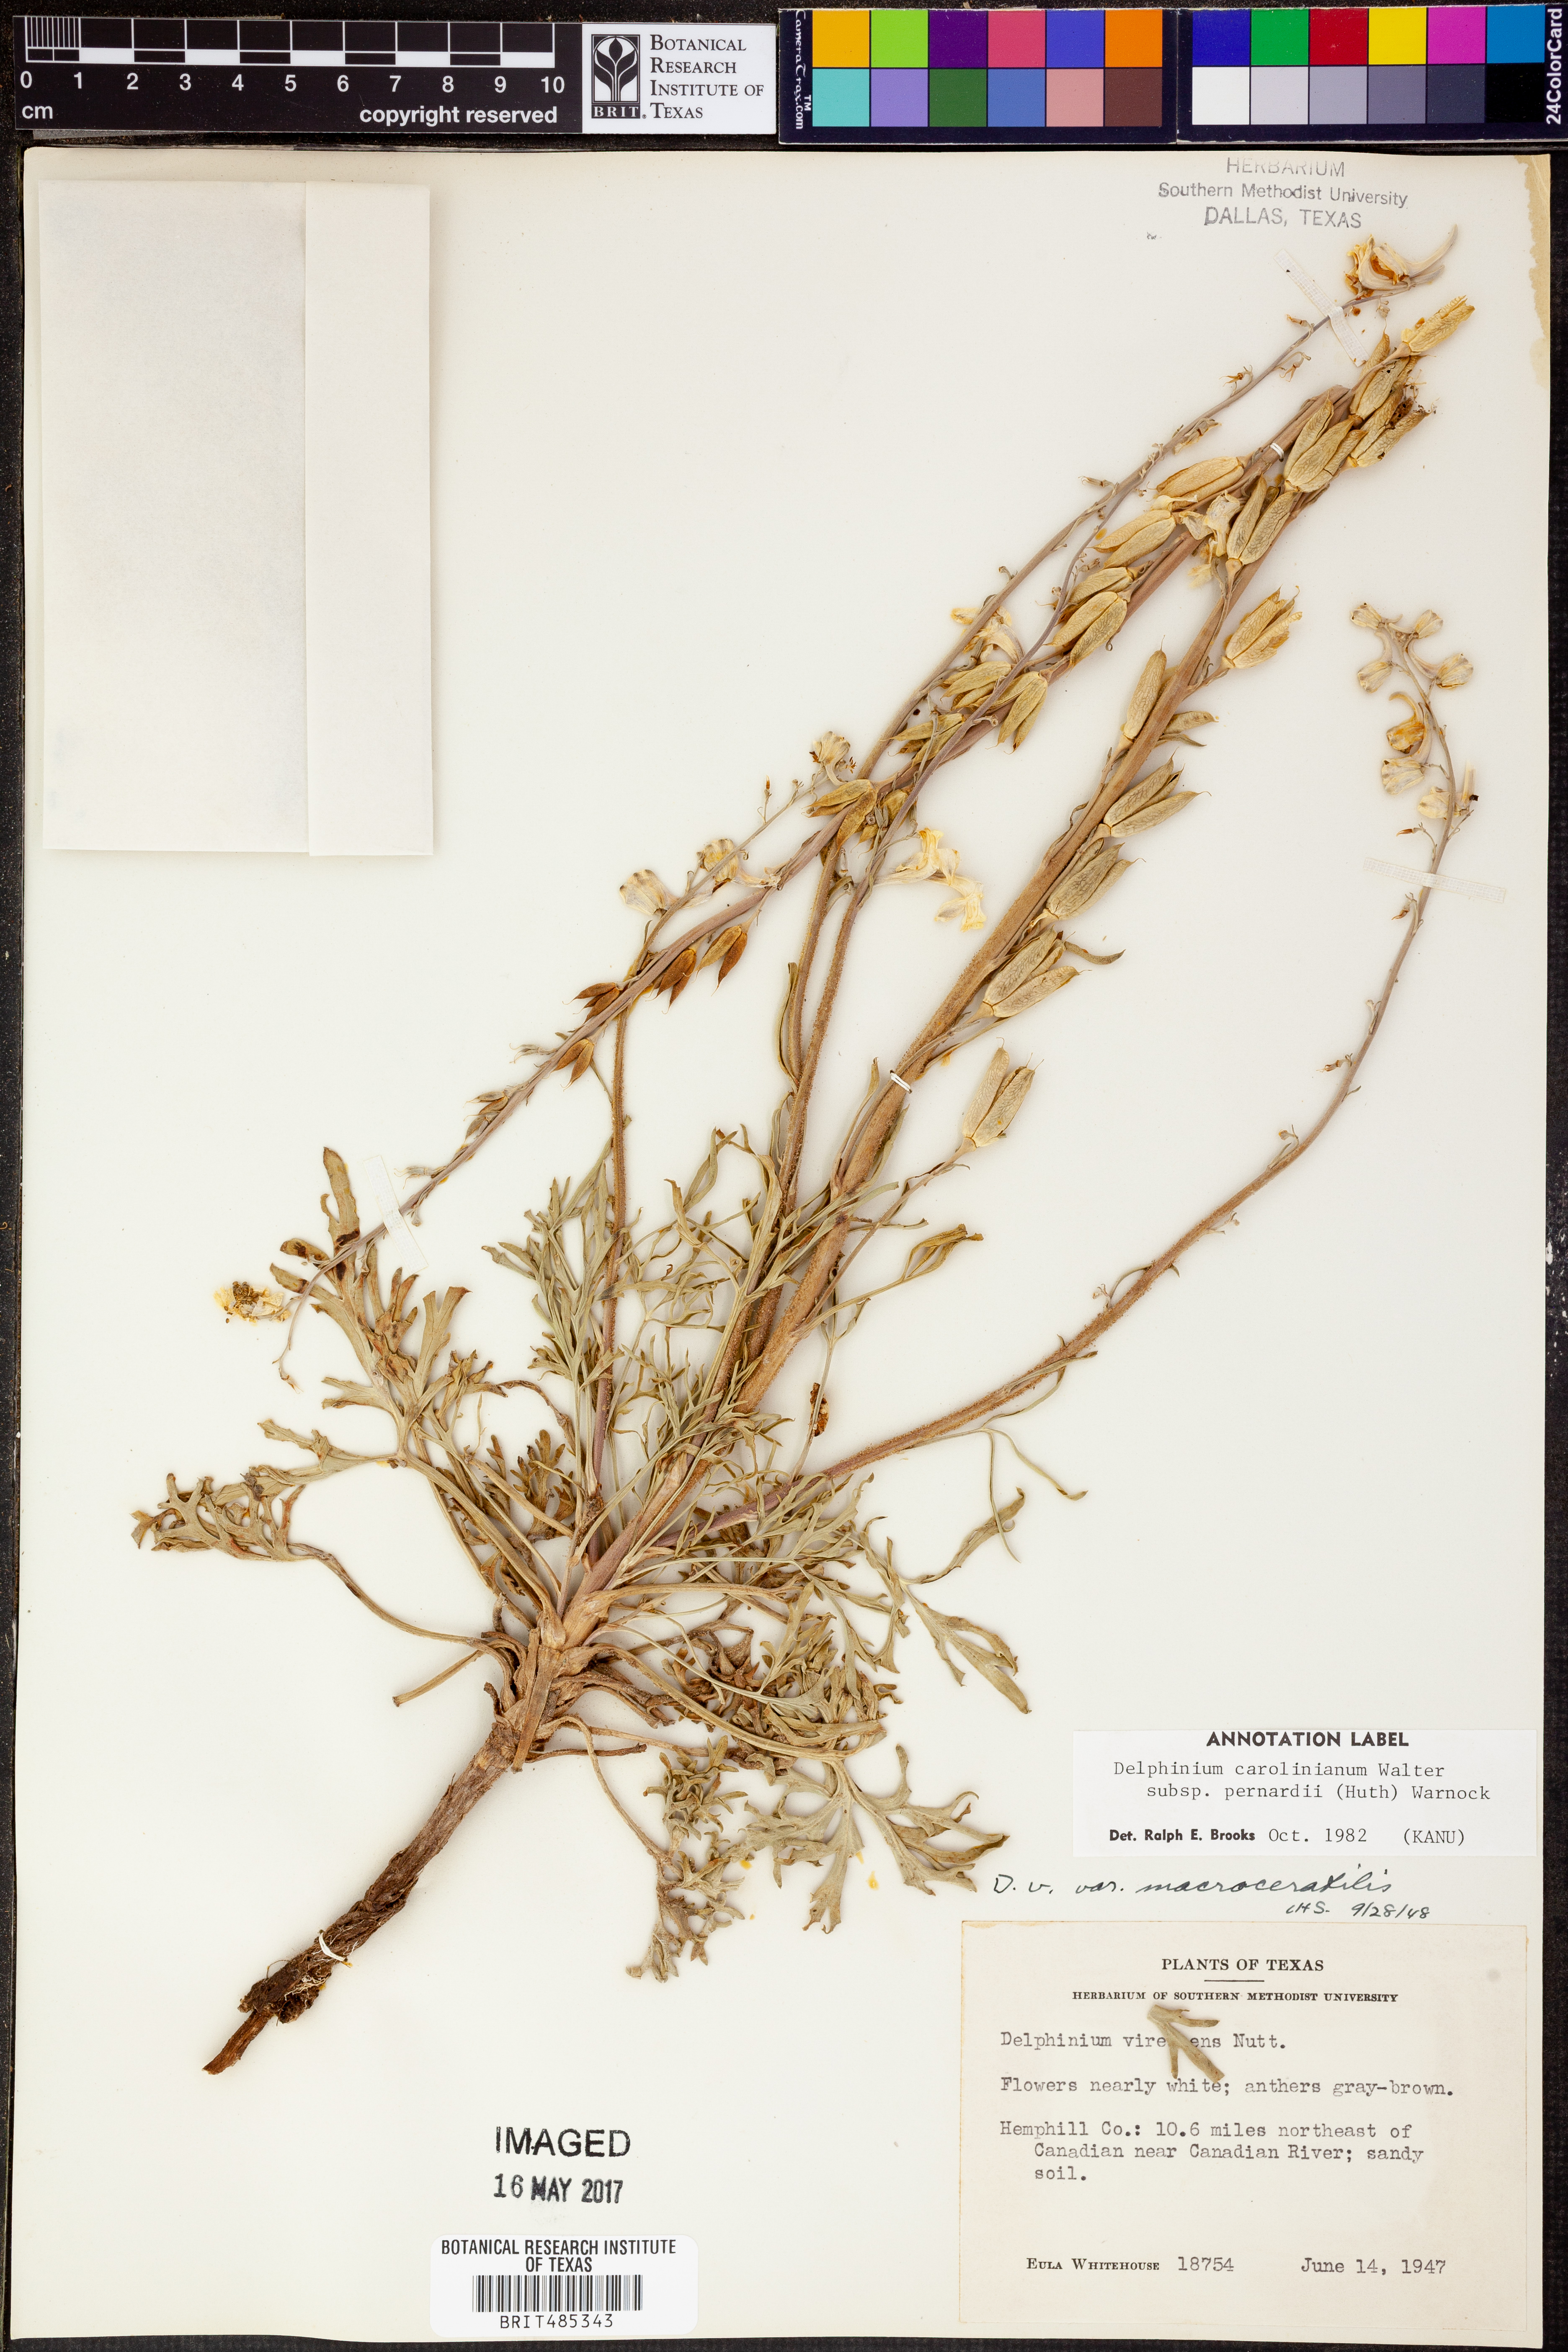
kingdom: Plantae
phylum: Tracheophyta
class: Magnoliopsida
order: Ranunculales
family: Ranunculaceae
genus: Delphinium
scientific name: Delphinium carolinianum
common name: Carolina larkspur
